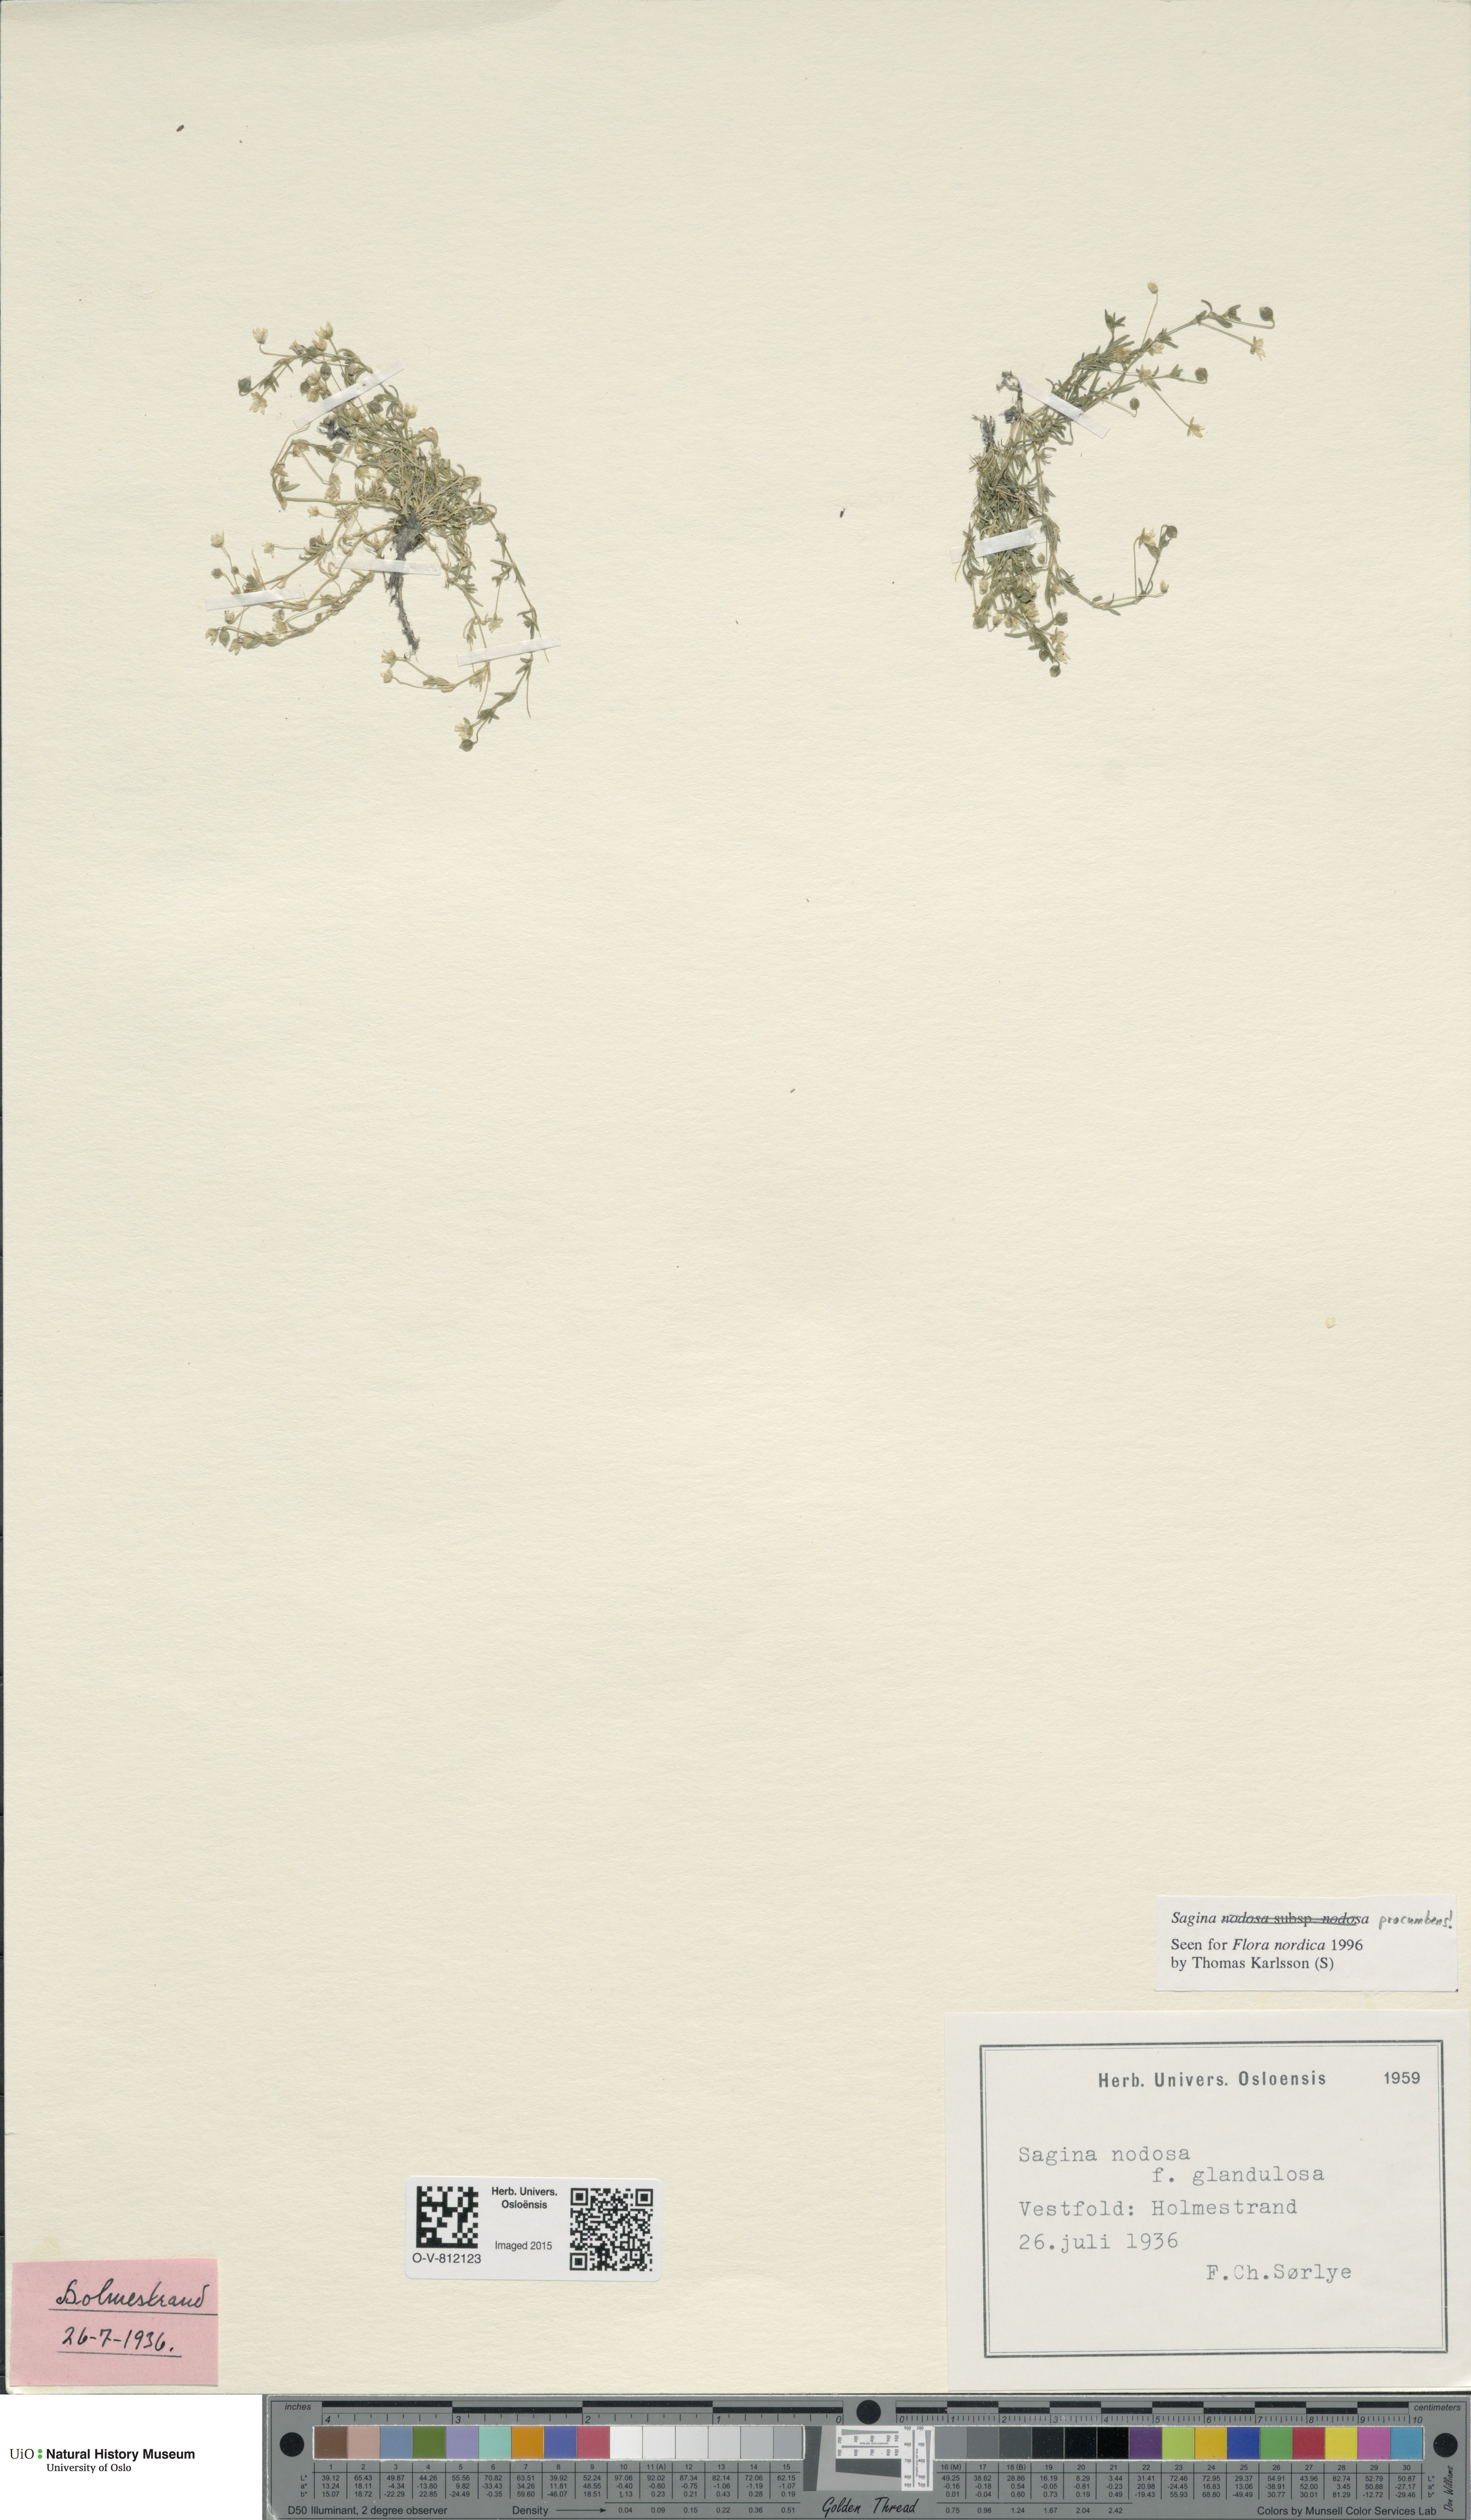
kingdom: Plantae
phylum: Tracheophyta
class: Magnoliopsida
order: Caryophyllales
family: Caryophyllaceae
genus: Sagina
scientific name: Sagina procumbens
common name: Procumbent pearlwort
